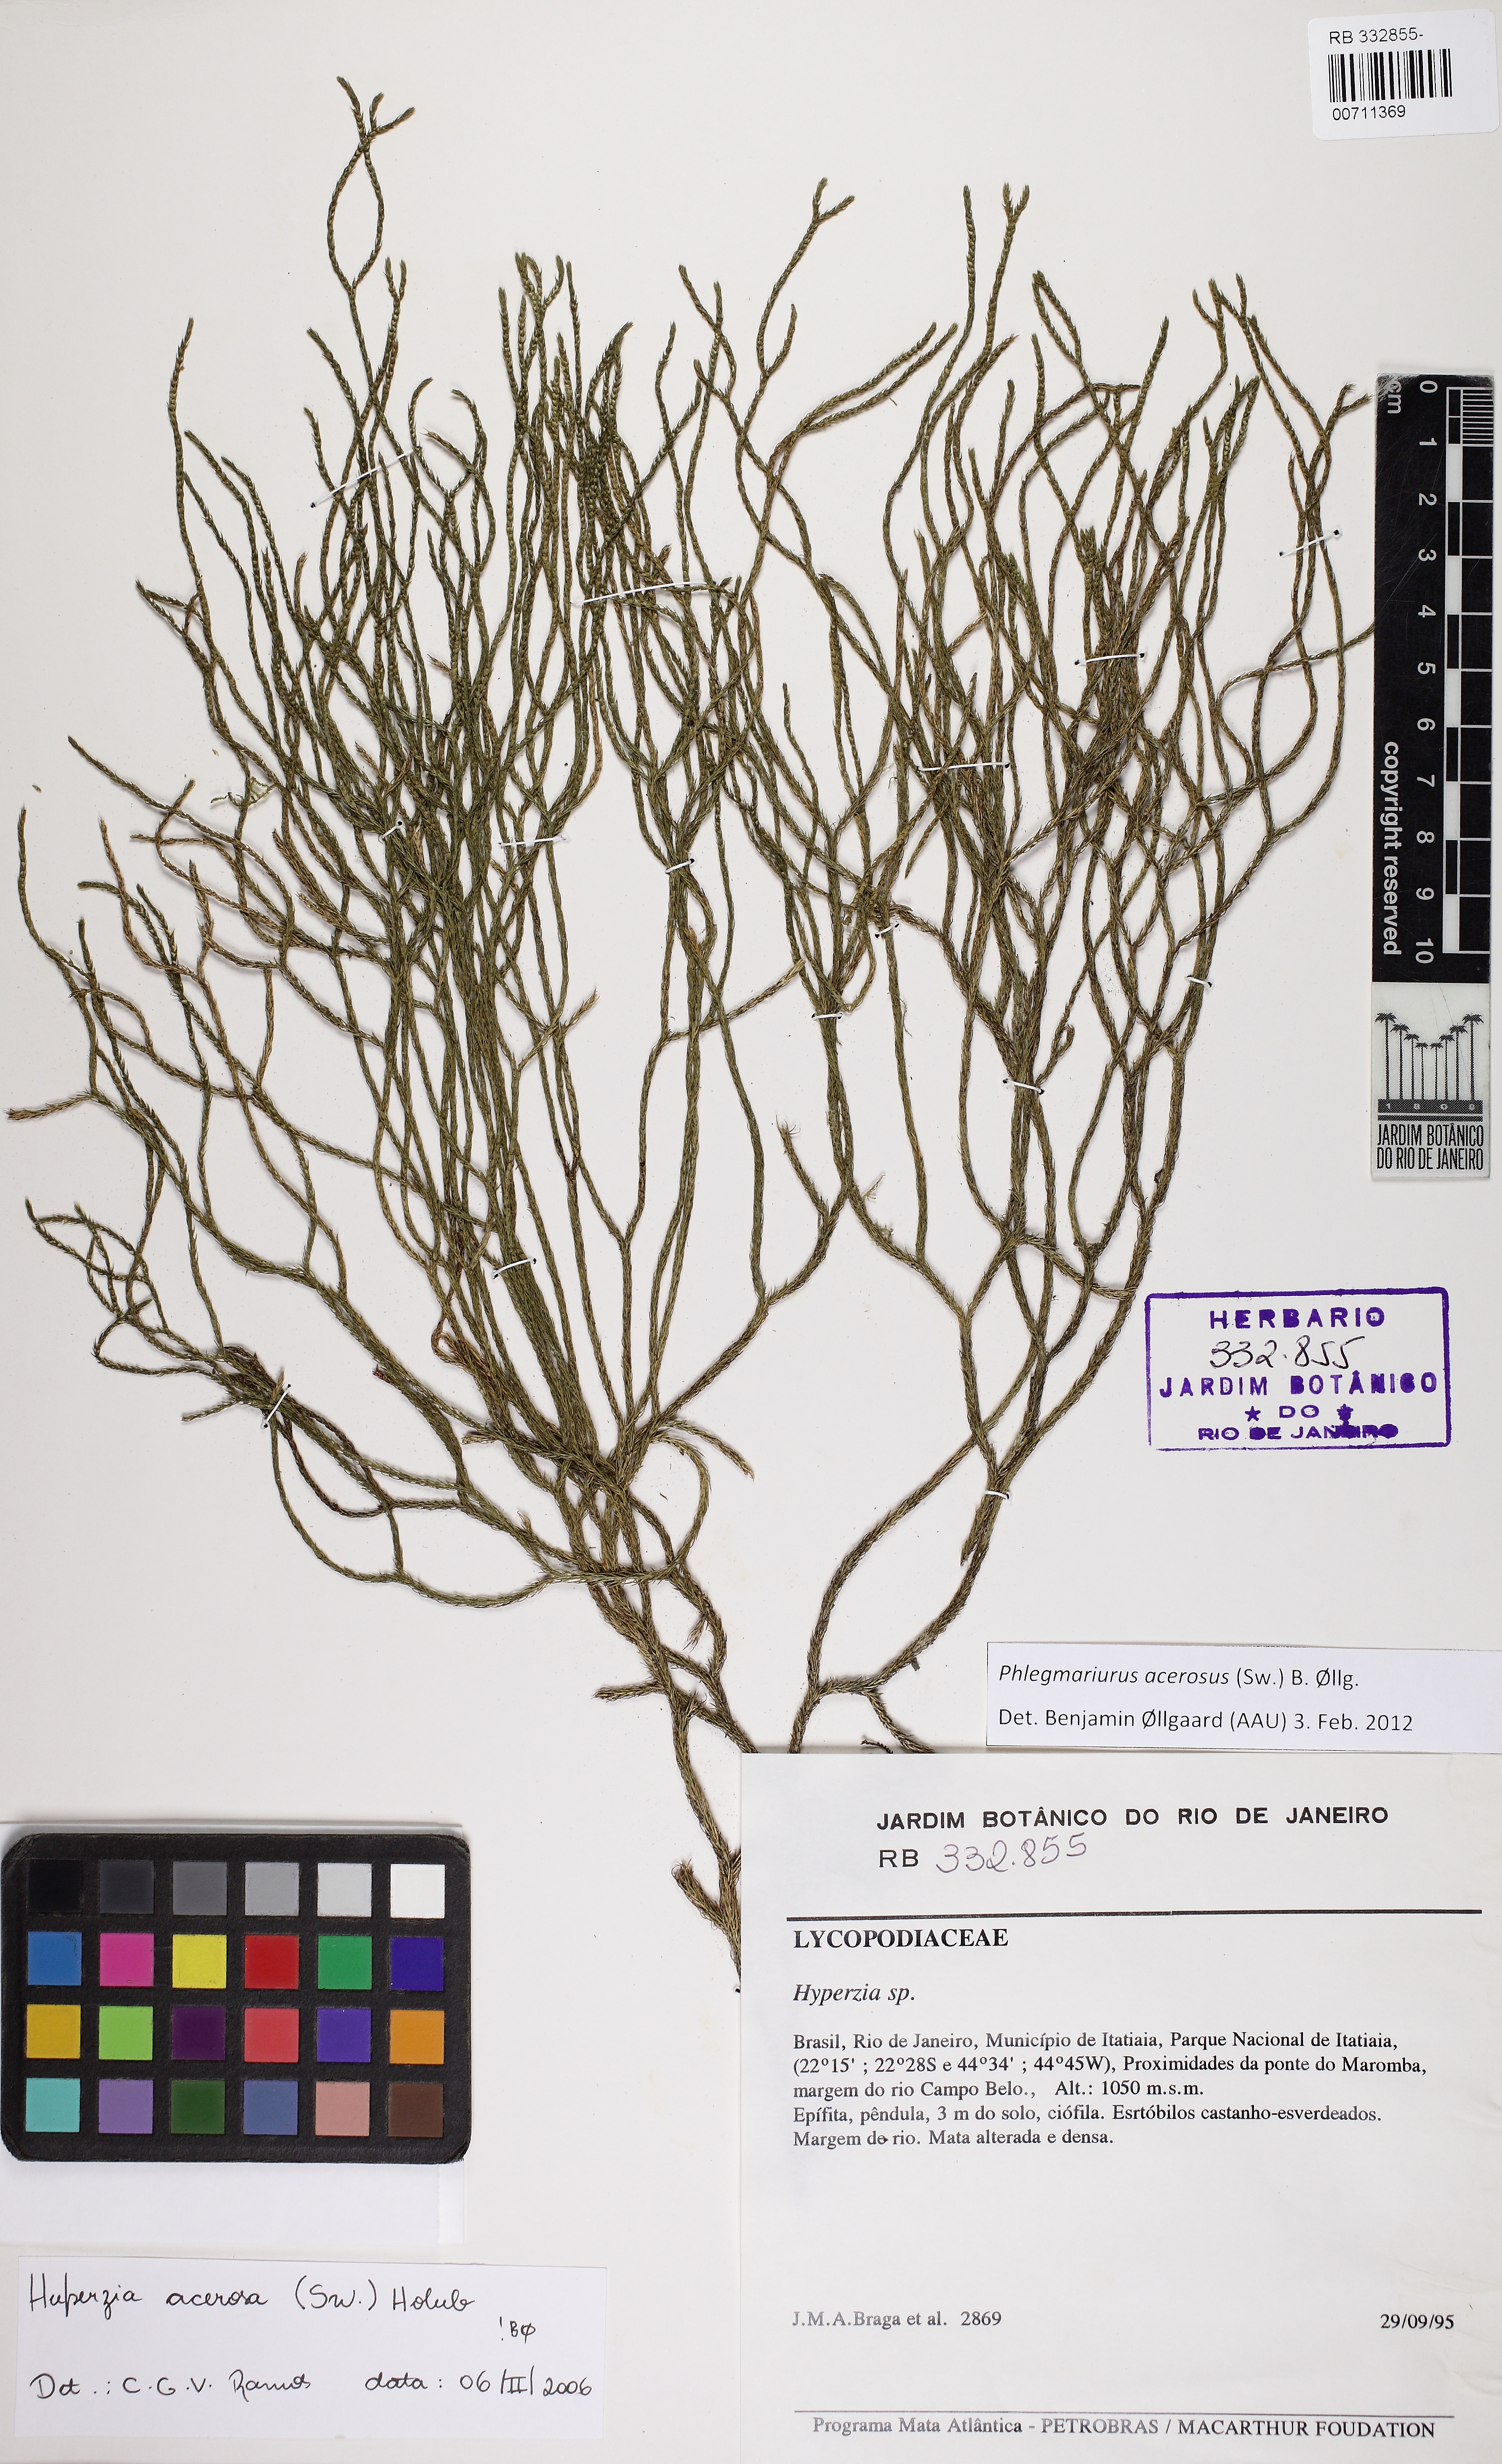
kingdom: Plantae
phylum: Tracheophyta
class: Lycopodiopsida
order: Lycopodiales
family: Lycopodiaceae
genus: Phlegmariurus
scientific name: Phlegmariurus acerosus
